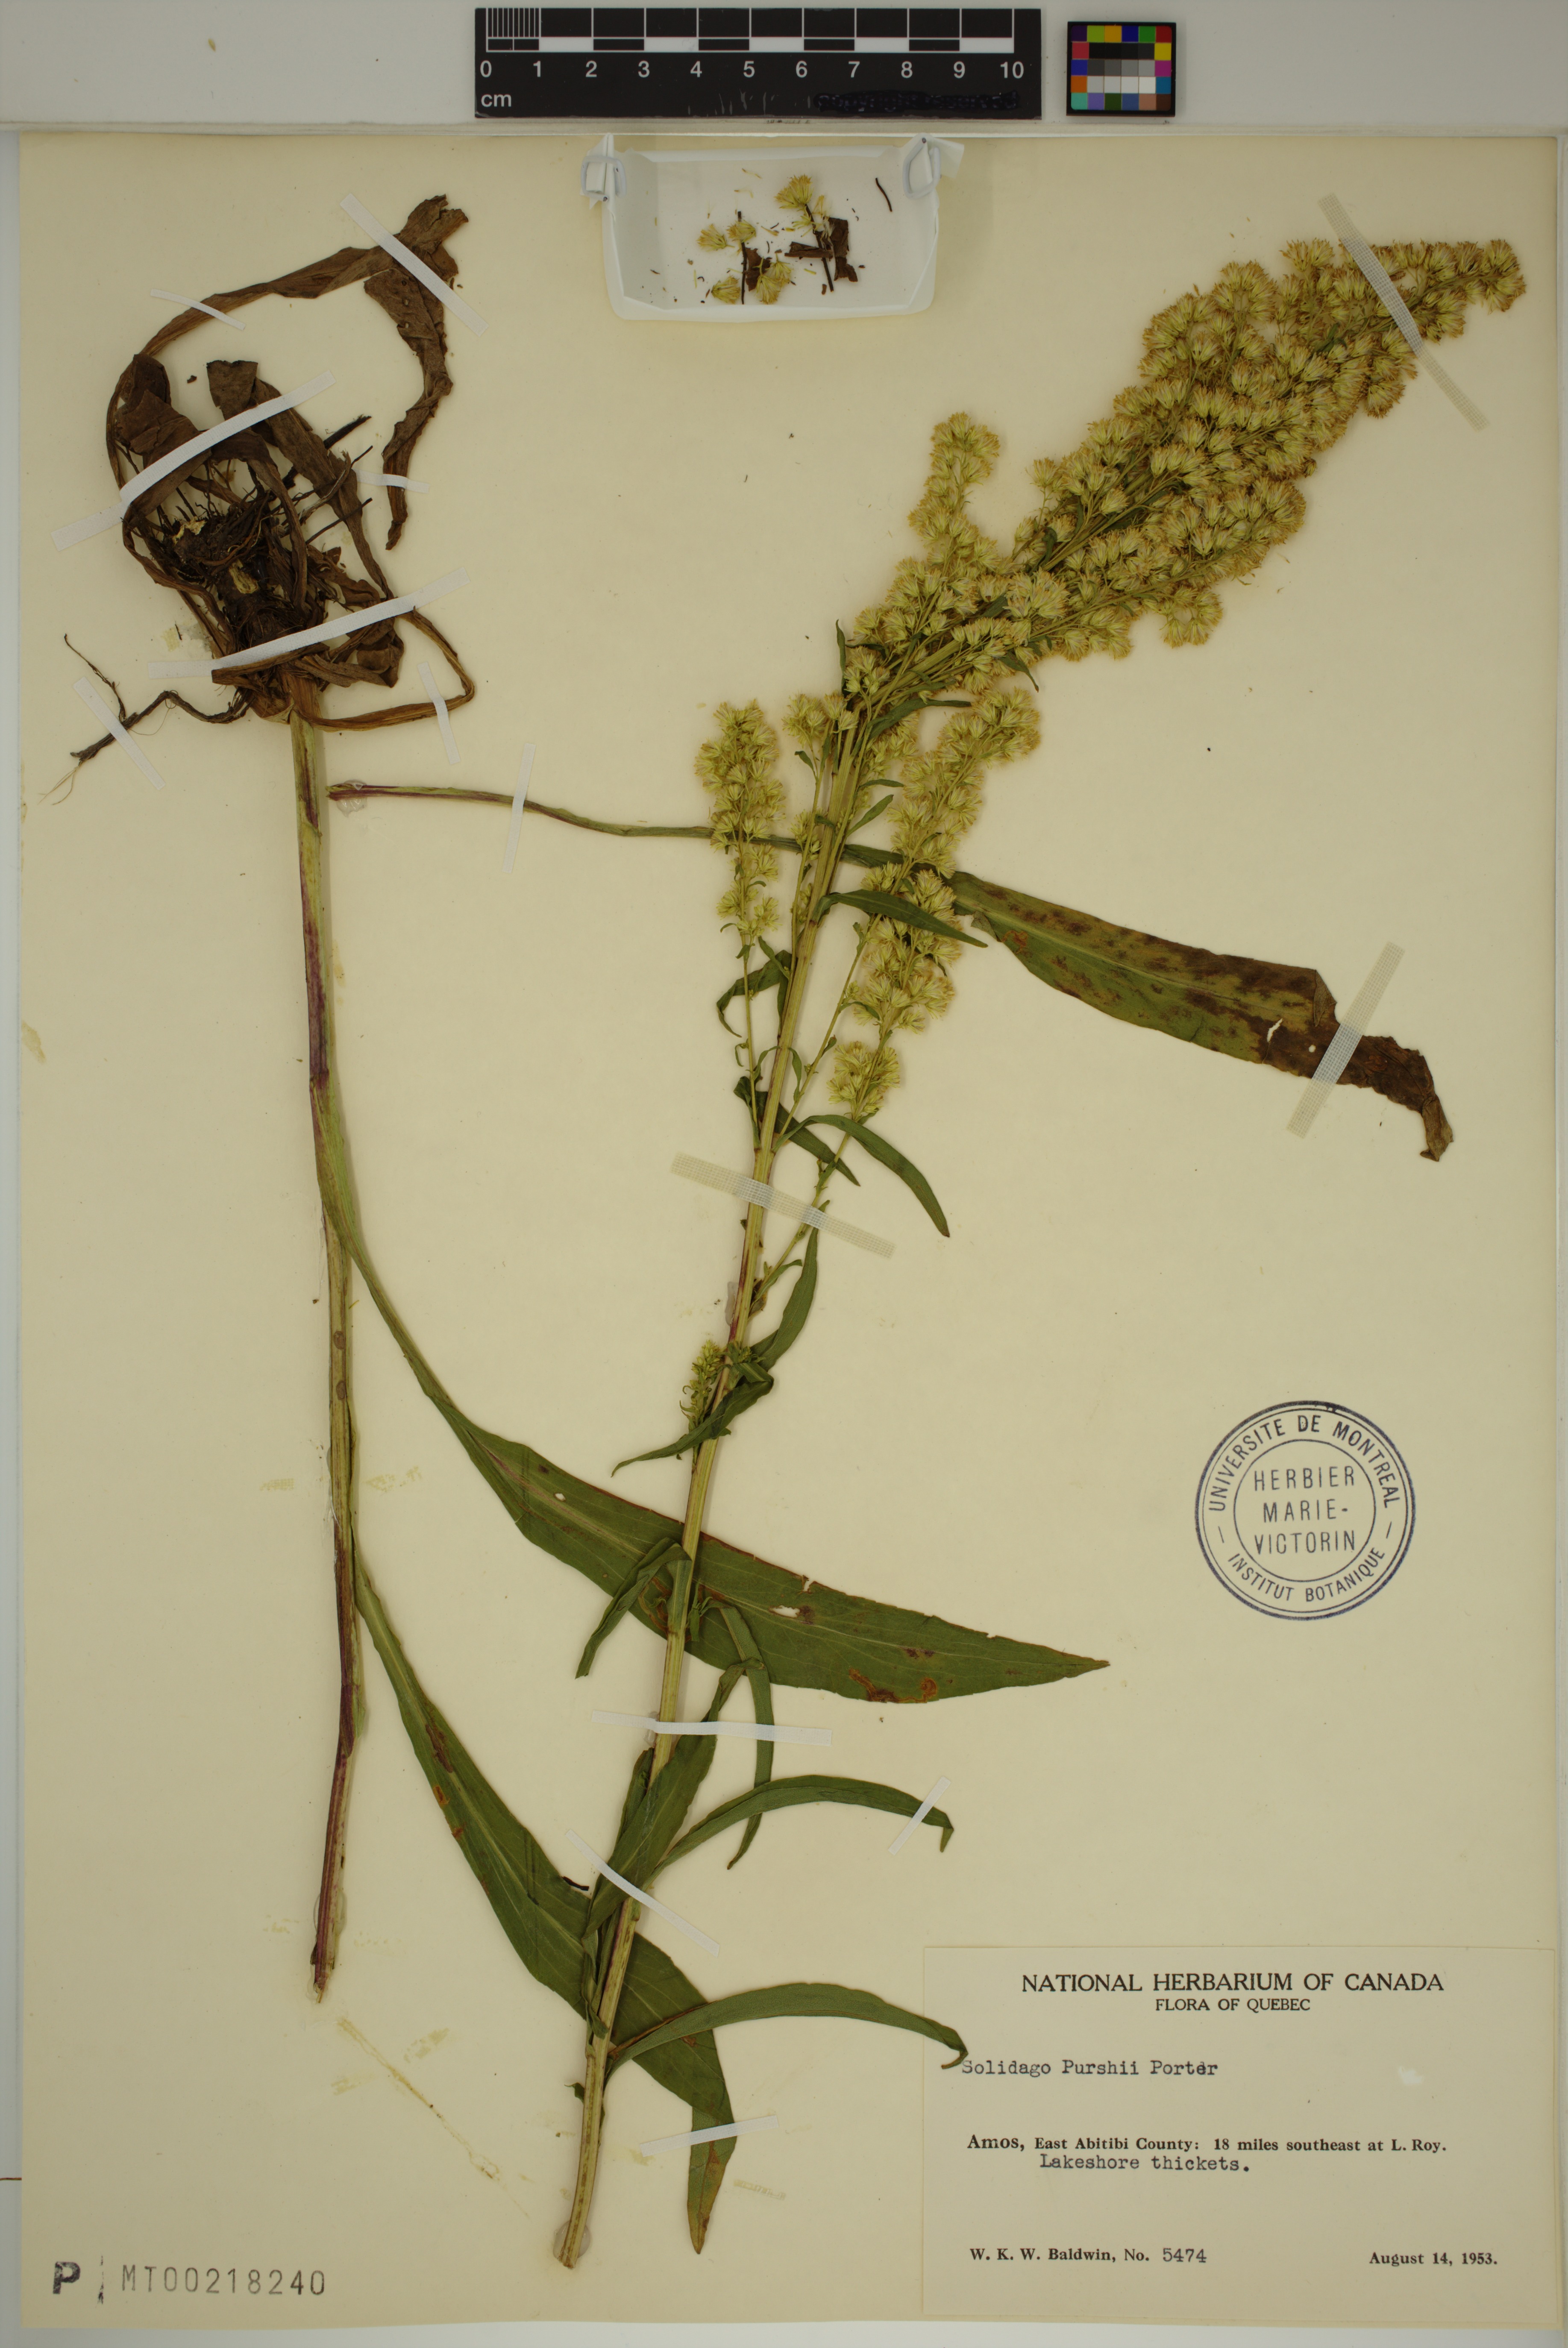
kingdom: Plantae
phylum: Tracheophyta
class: Magnoliopsida
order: Asterales
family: Asteraceae
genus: Solidago
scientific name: Solidago uliginosa
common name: Bog goldenrod
